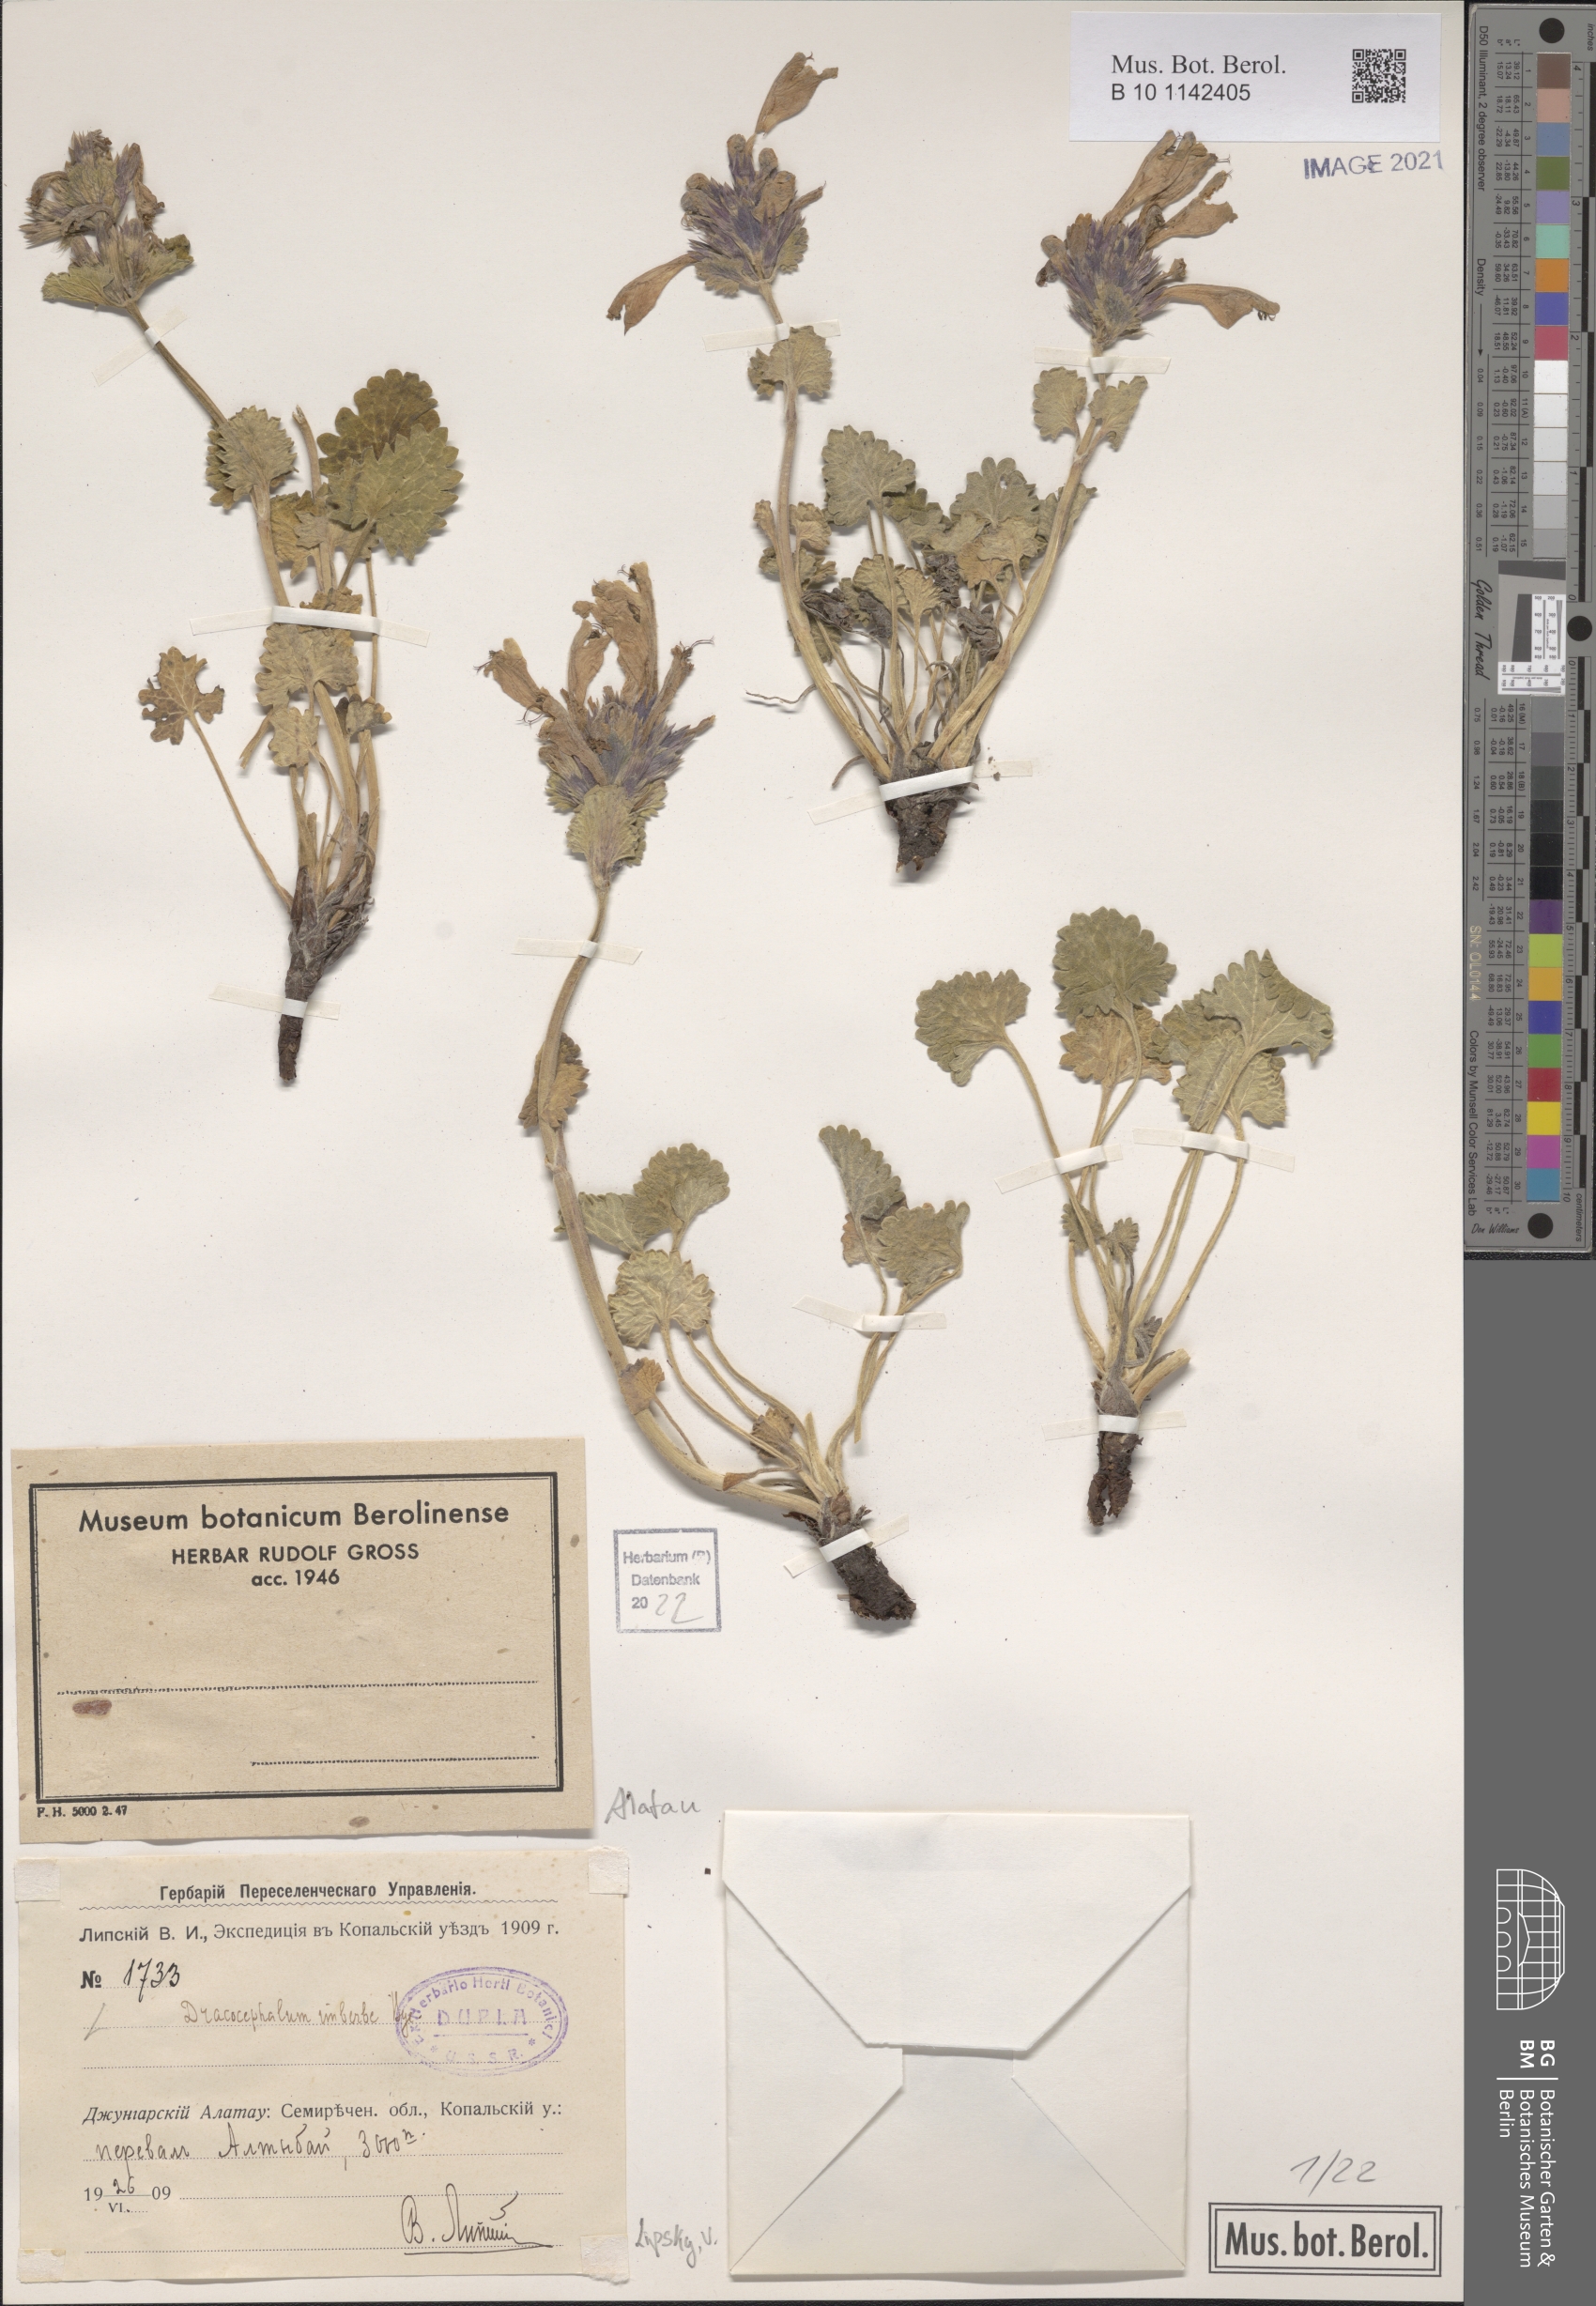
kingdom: Plantae
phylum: Tracheophyta
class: Magnoliopsida
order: Lamiales
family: Lamiaceae
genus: Dracocephalum
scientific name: Dracocephalum imberbe
